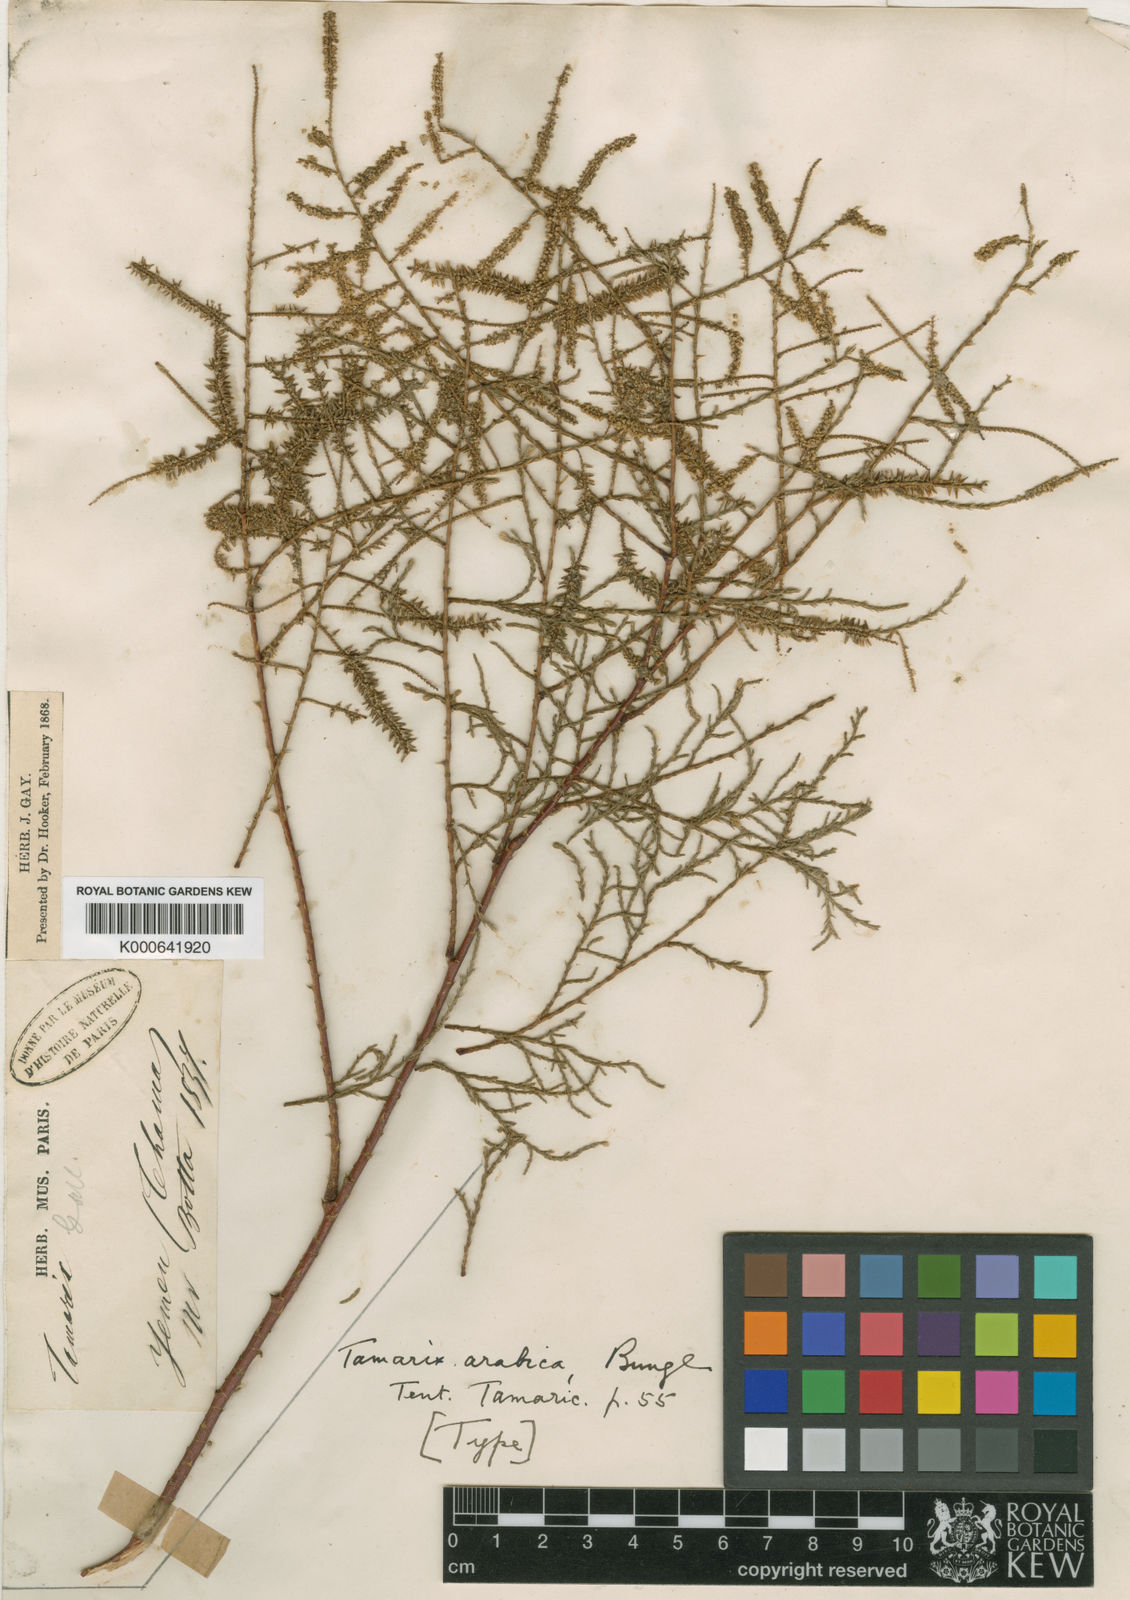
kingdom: Plantae
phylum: Tracheophyta
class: Magnoliopsida
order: Caryophyllales
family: Tamaricaceae
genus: Tamarix
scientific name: Tamarix nilotica
